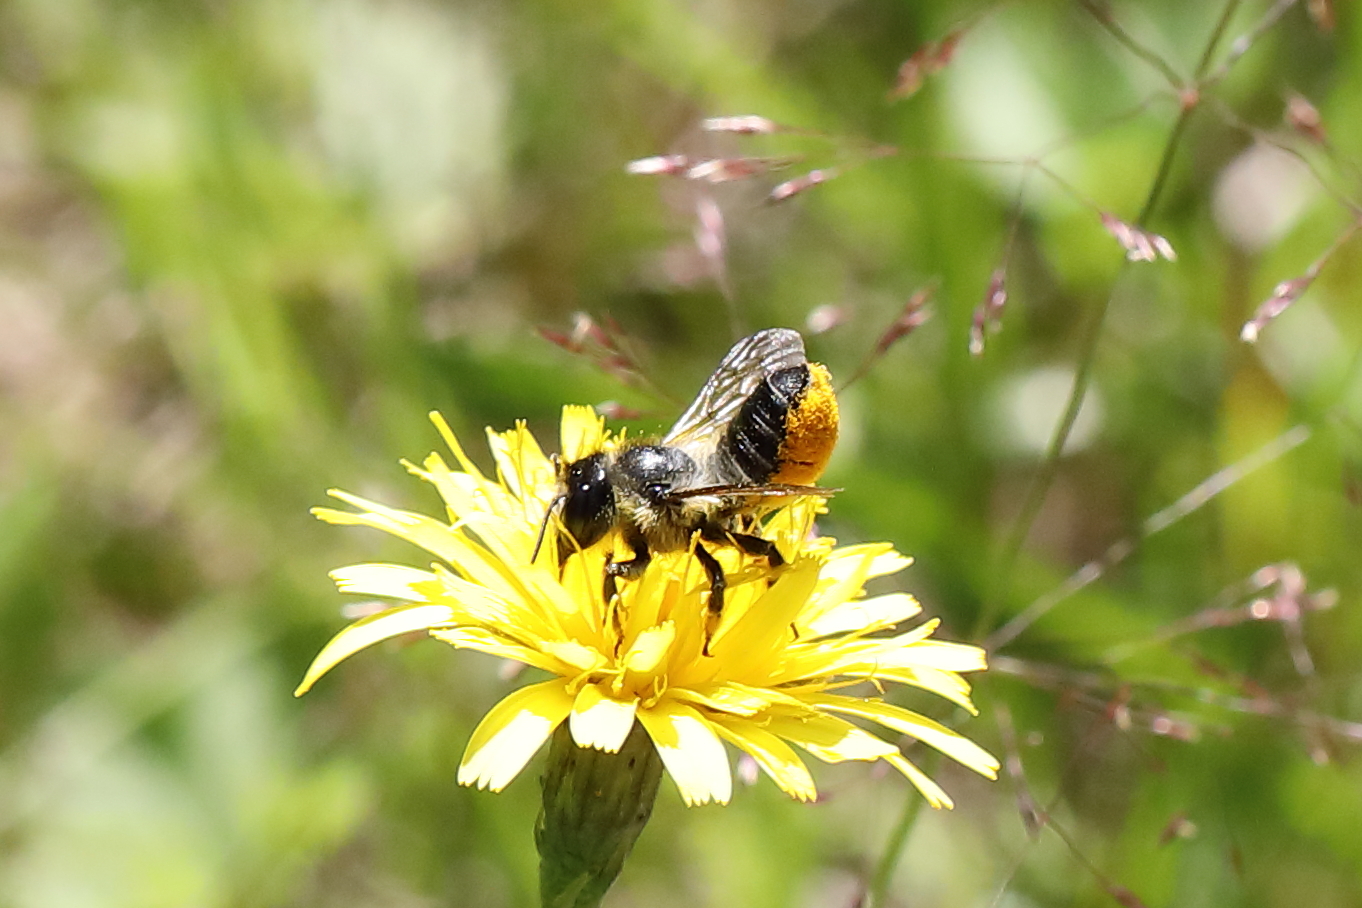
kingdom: Animalia
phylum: Arthropoda
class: Insecta
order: Hymenoptera
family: Megachilidae
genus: Megachile
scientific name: Megachile
